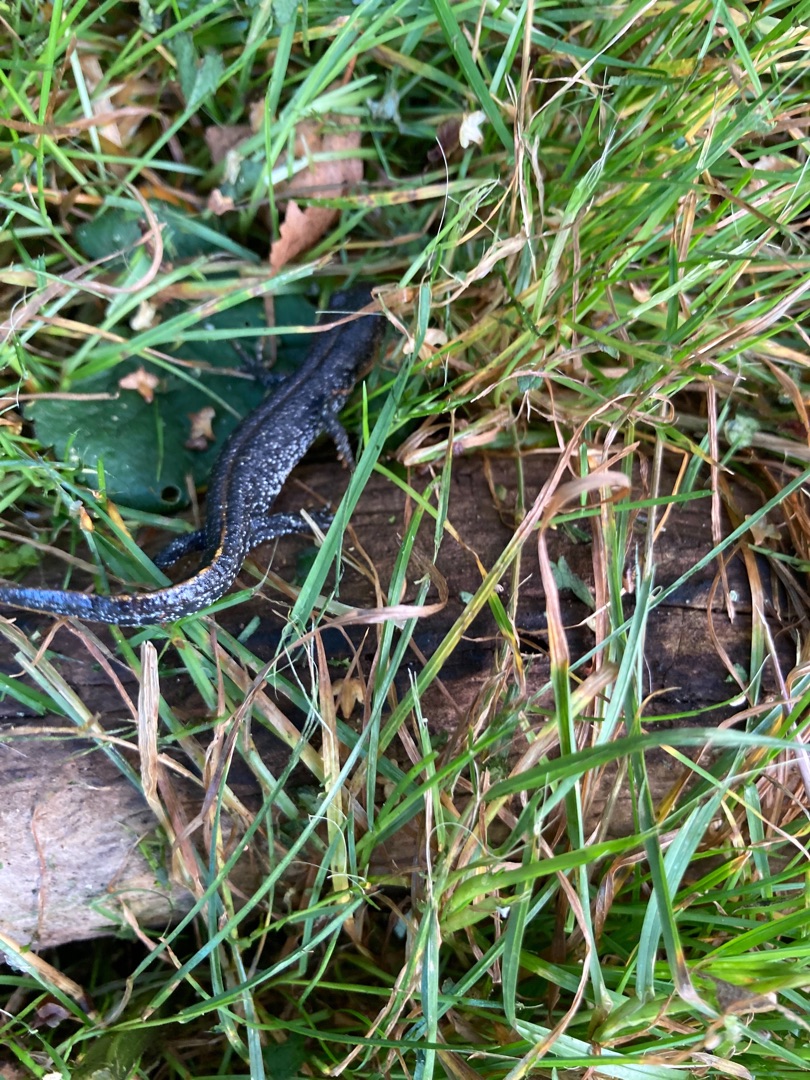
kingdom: Animalia
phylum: Chordata
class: Amphibia
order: Caudata
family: Salamandridae
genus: Triturus
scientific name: Triturus cristatus
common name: Stor vandsalamander
